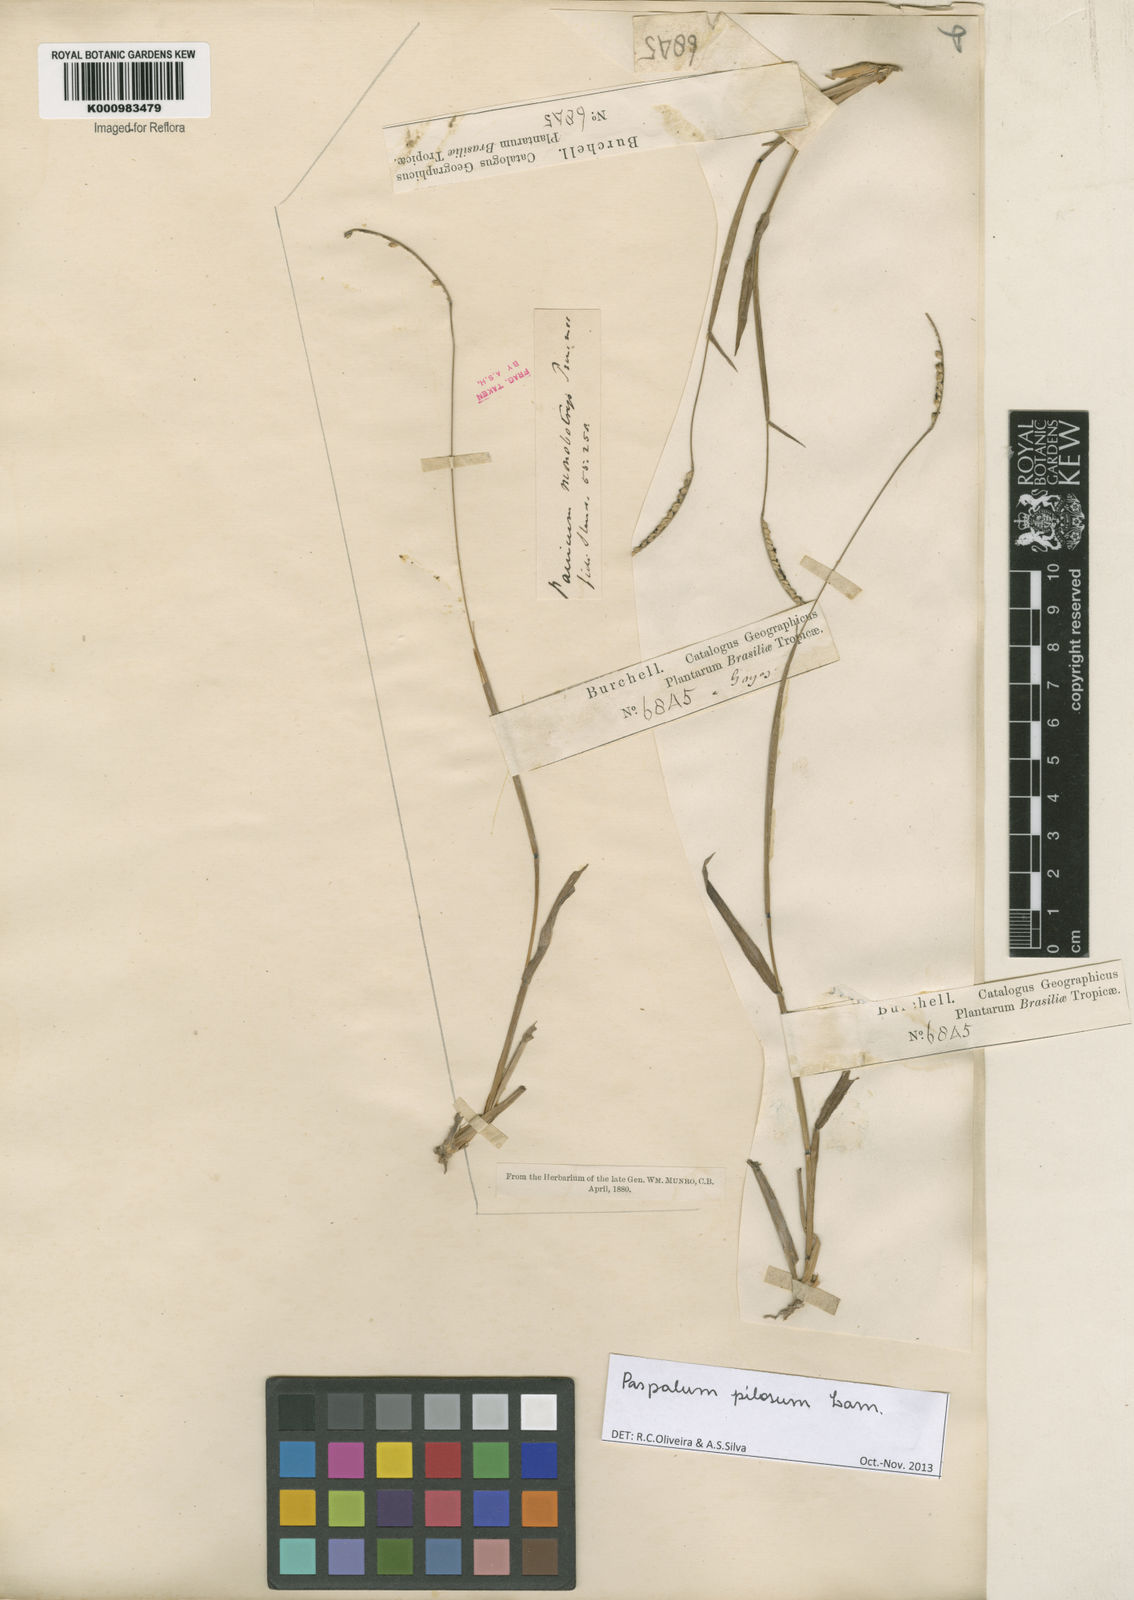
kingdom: Plantae
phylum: Tracheophyta
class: Liliopsida
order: Poales
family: Poaceae
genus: Paspalum
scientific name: Paspalum pilosum
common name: Crowngrass
